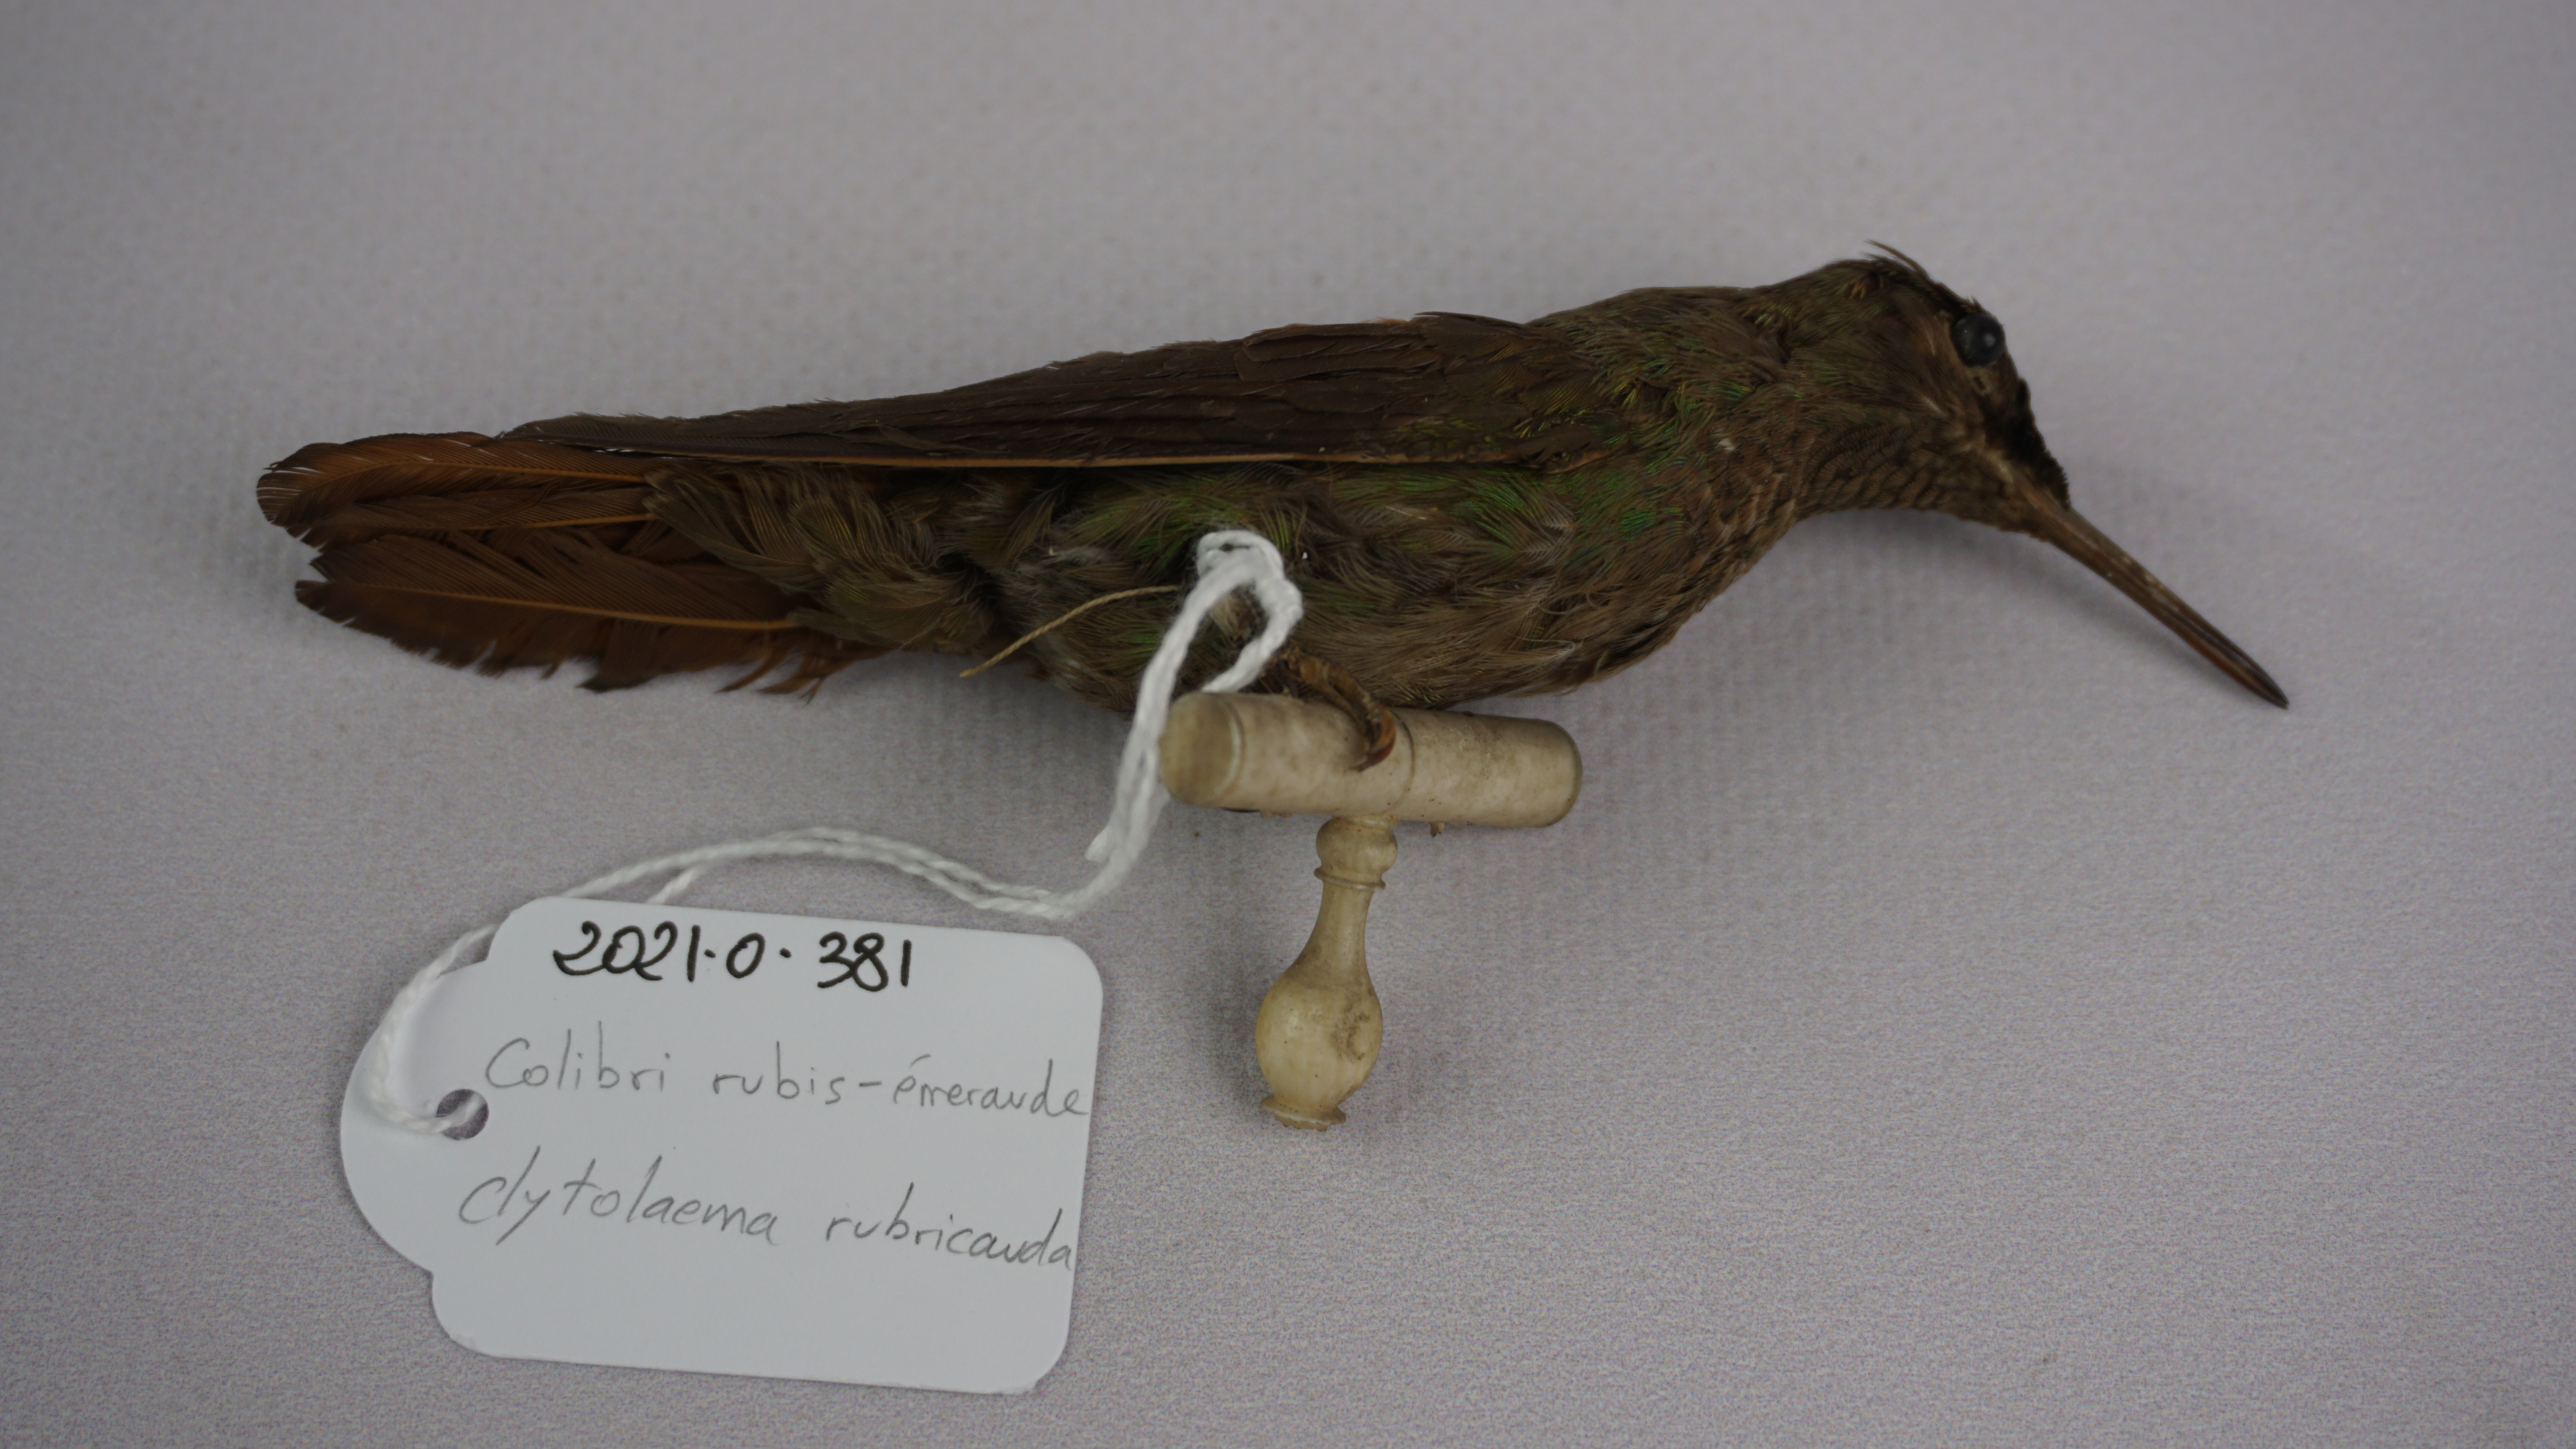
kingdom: Animalia
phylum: Chordata
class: Aves
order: Apodiformes
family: Trochilidae
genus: Clytolaema
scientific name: Clytolaema rubricauda
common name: Brazilian ruby
